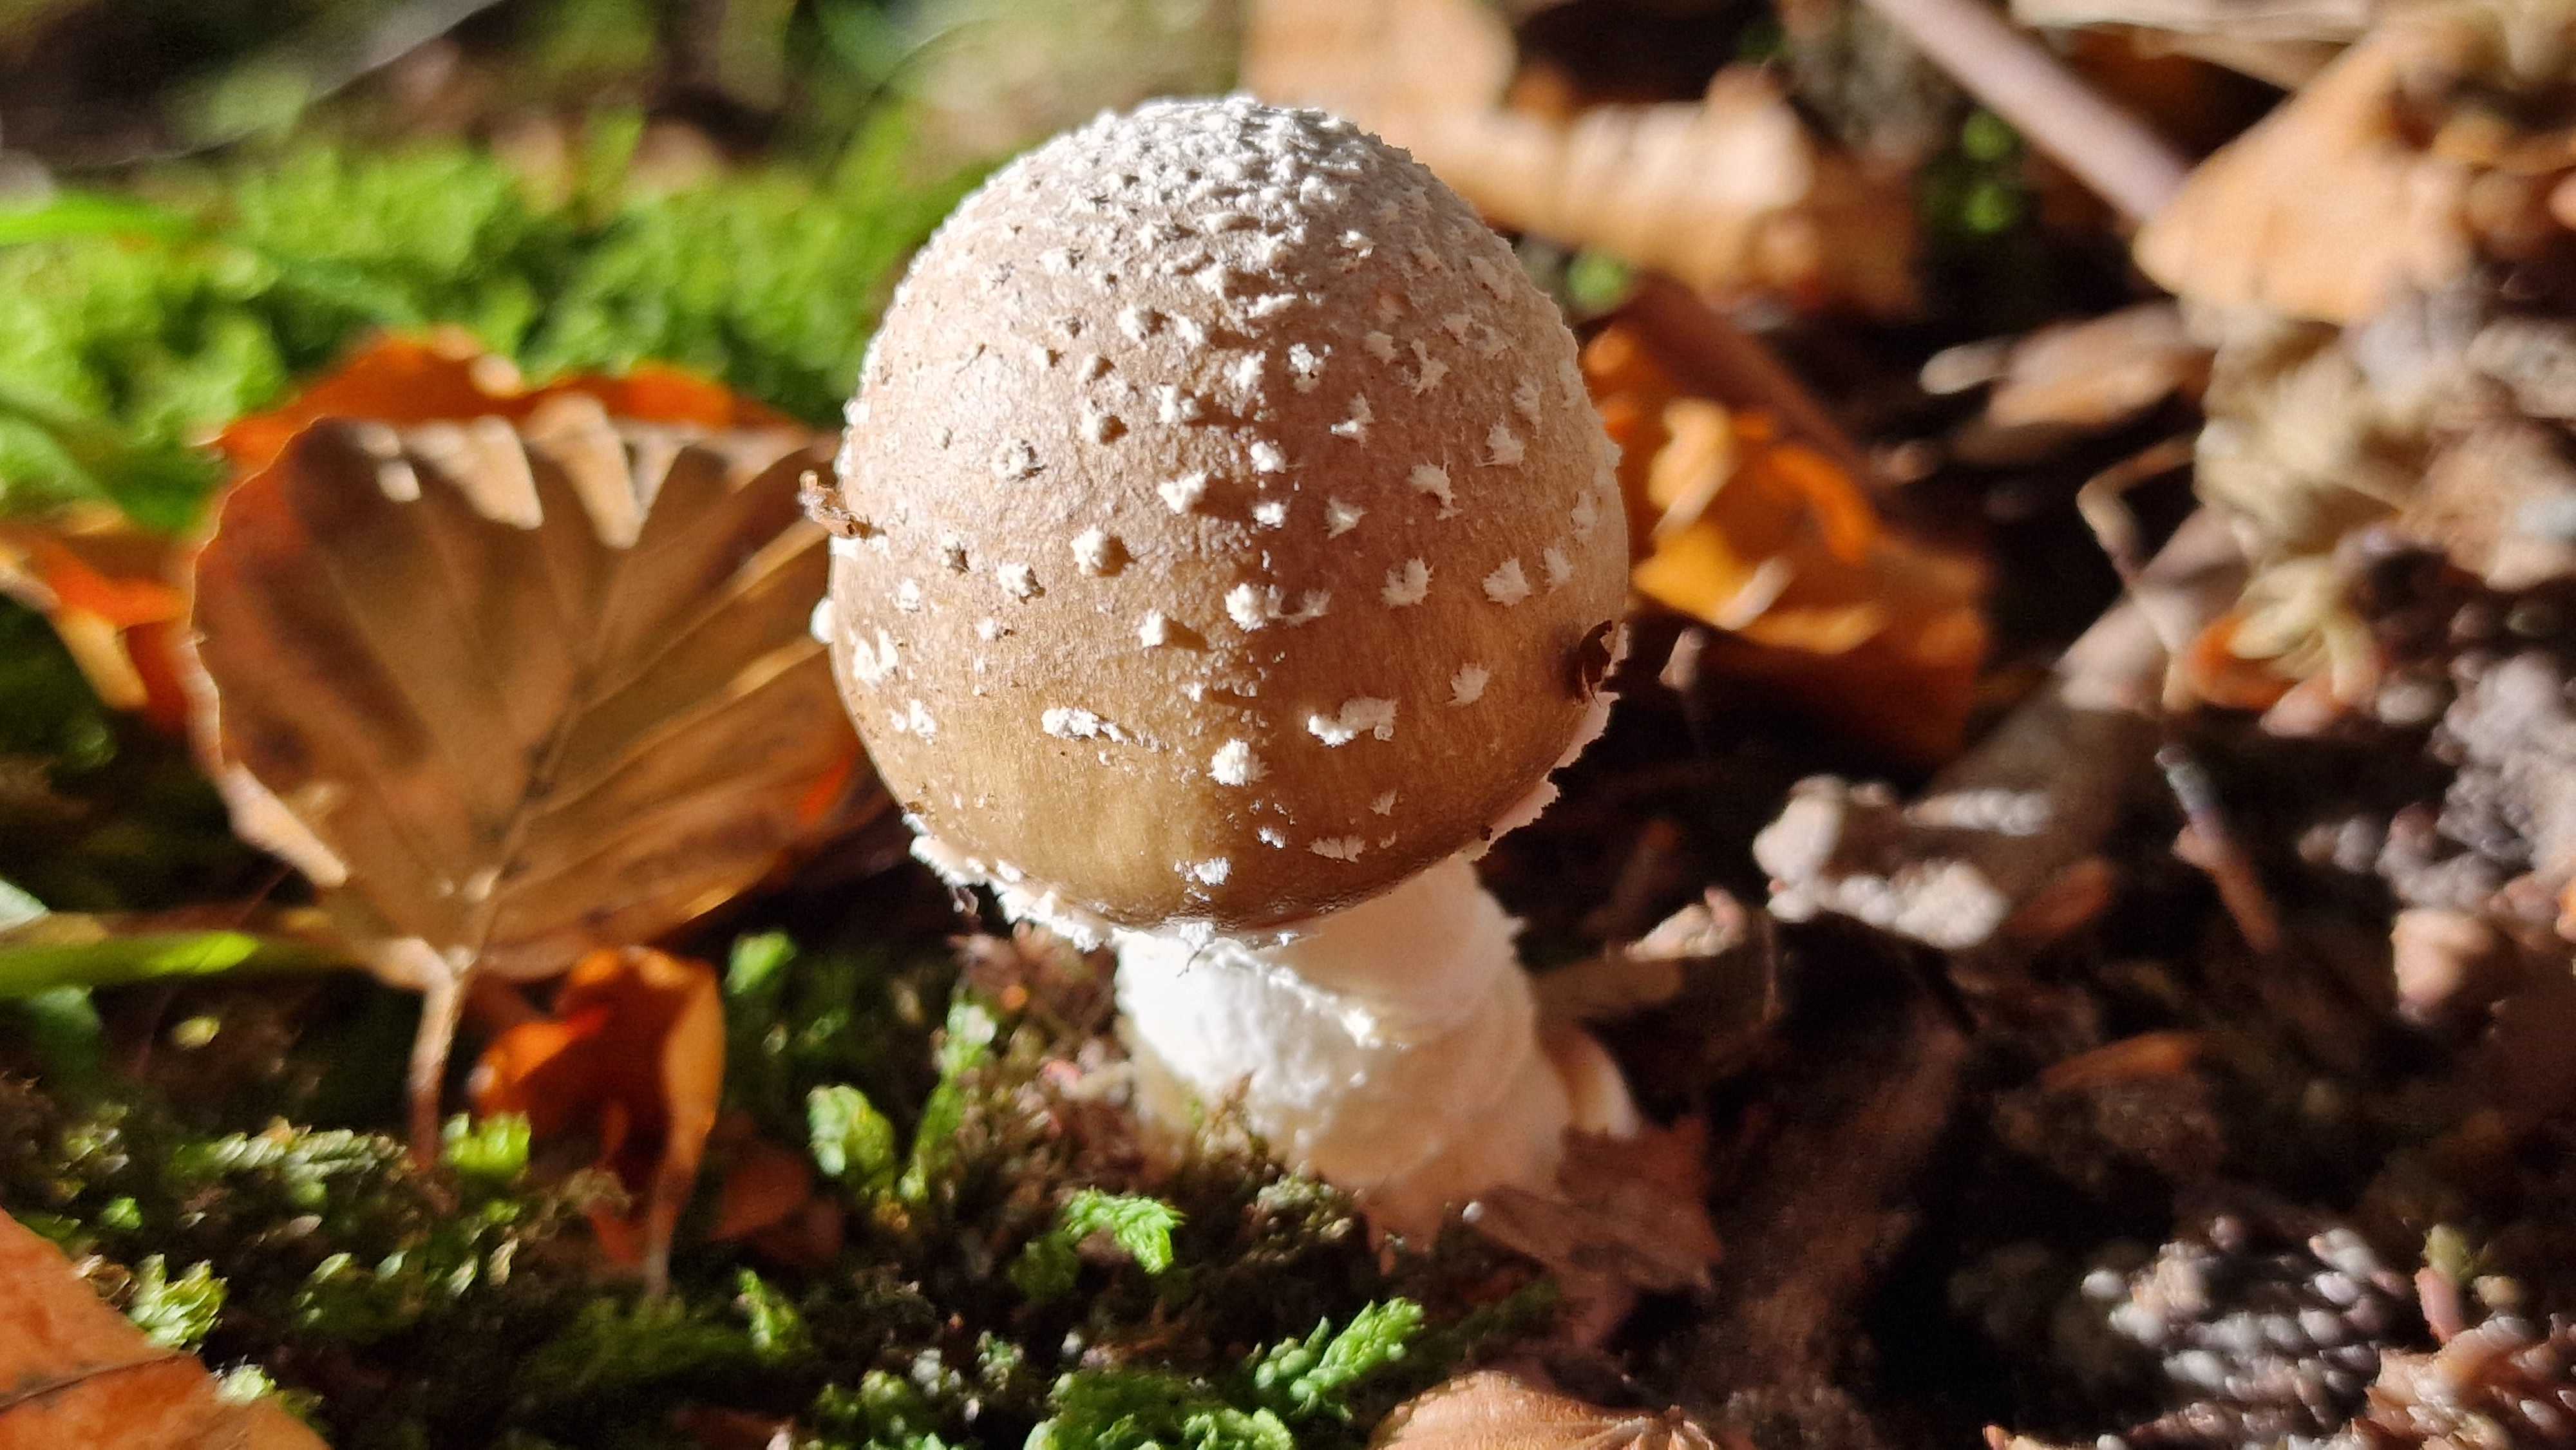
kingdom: Fungi
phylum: Basidiomycota
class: Agaricomycetes
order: Agaricales
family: Amanitaceae
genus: Amanita
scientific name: Amanita pantherina
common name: panter-fluesvamp
